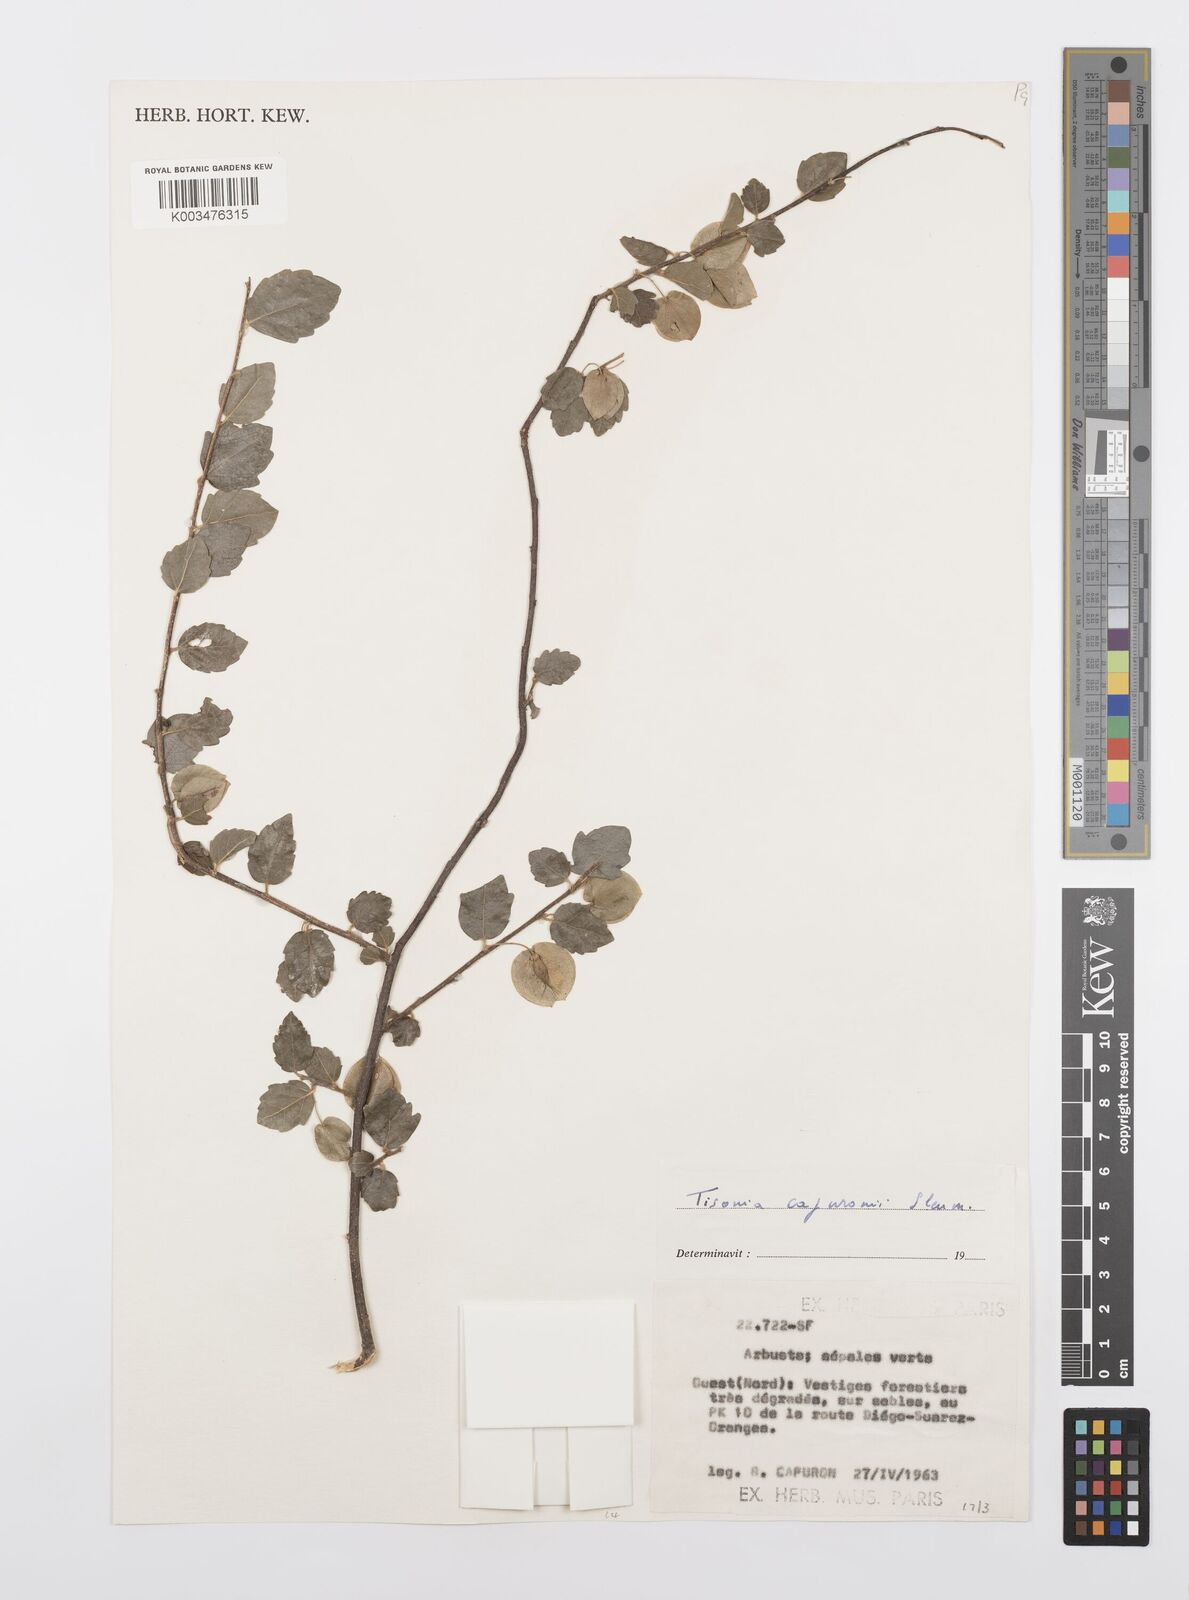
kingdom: Plantae
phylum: Tracheophyta
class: Magnoliopsida
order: Malpighiales
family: Salicaceae
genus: Tisonia
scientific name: Tisonia capuronii
